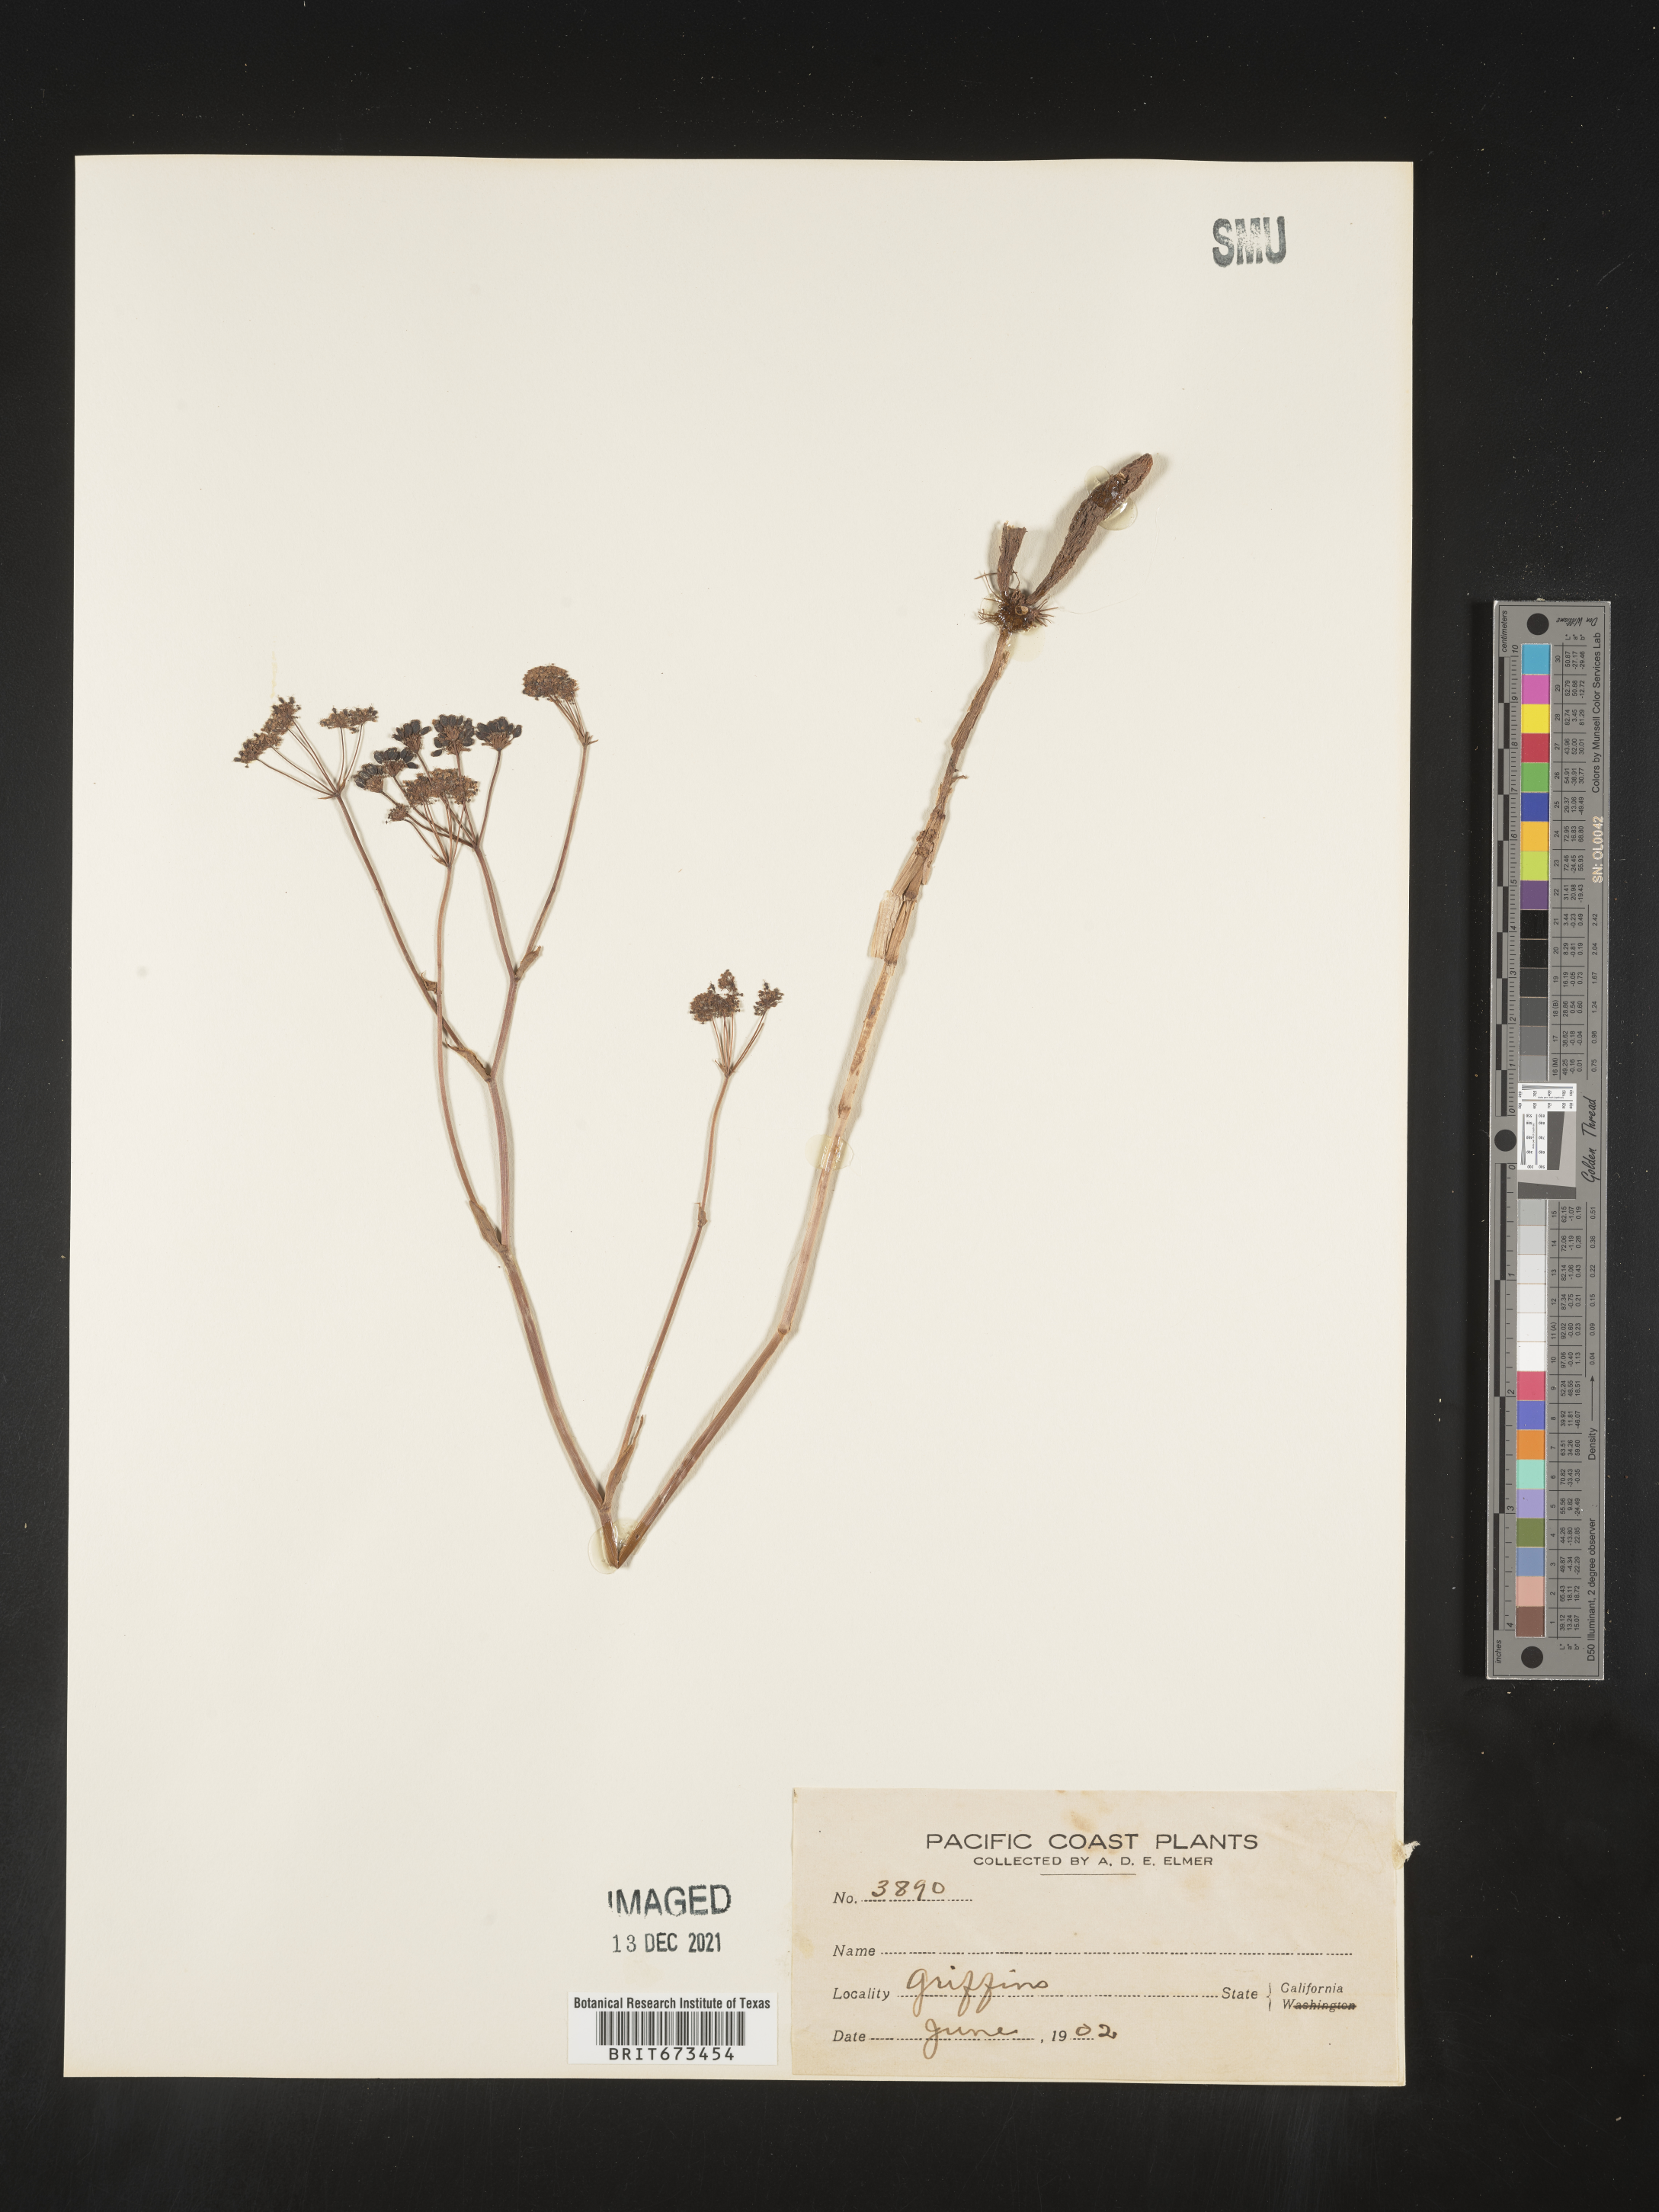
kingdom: Plantae
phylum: Tracheophyta
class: Magnoliopsida
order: Apiales
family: Apiaceae
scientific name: Apiaceae
